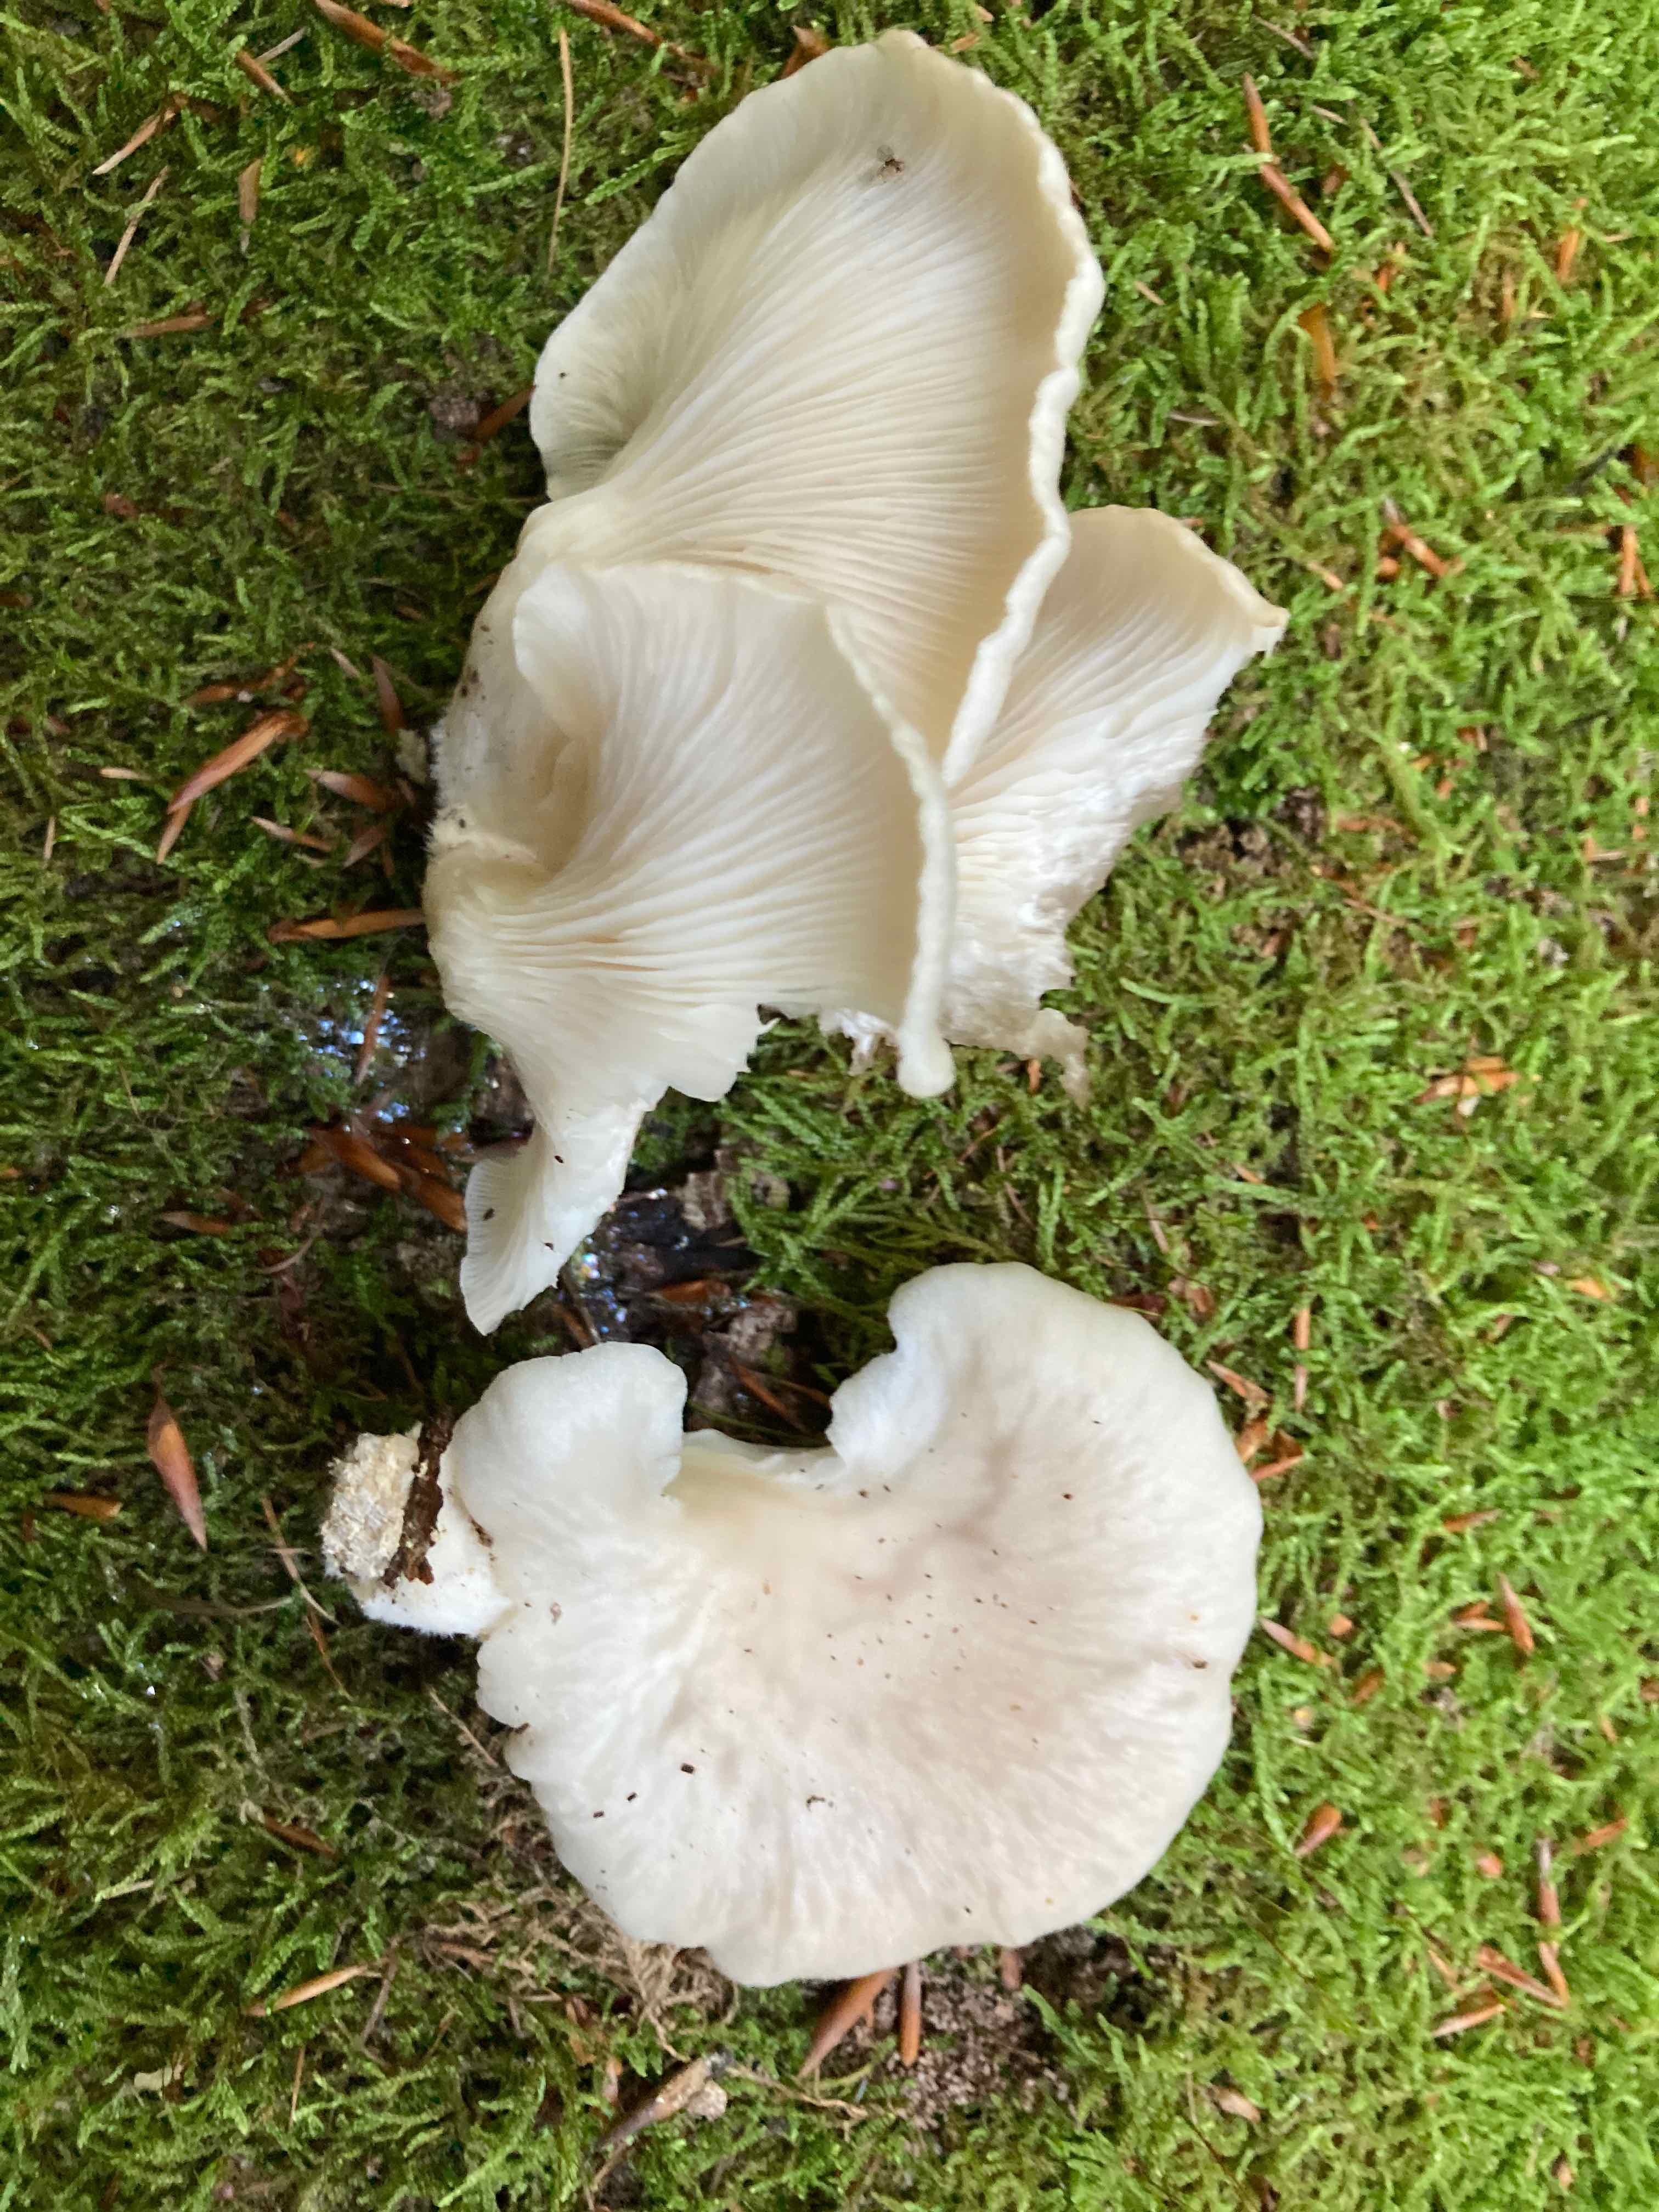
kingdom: Fungi
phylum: Basidiomycota
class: Agaricomycetes
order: Agaricales
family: Pleurotaceae
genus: Pleurotus
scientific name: Pleurotus pulmonarius
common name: sommer-østershat
